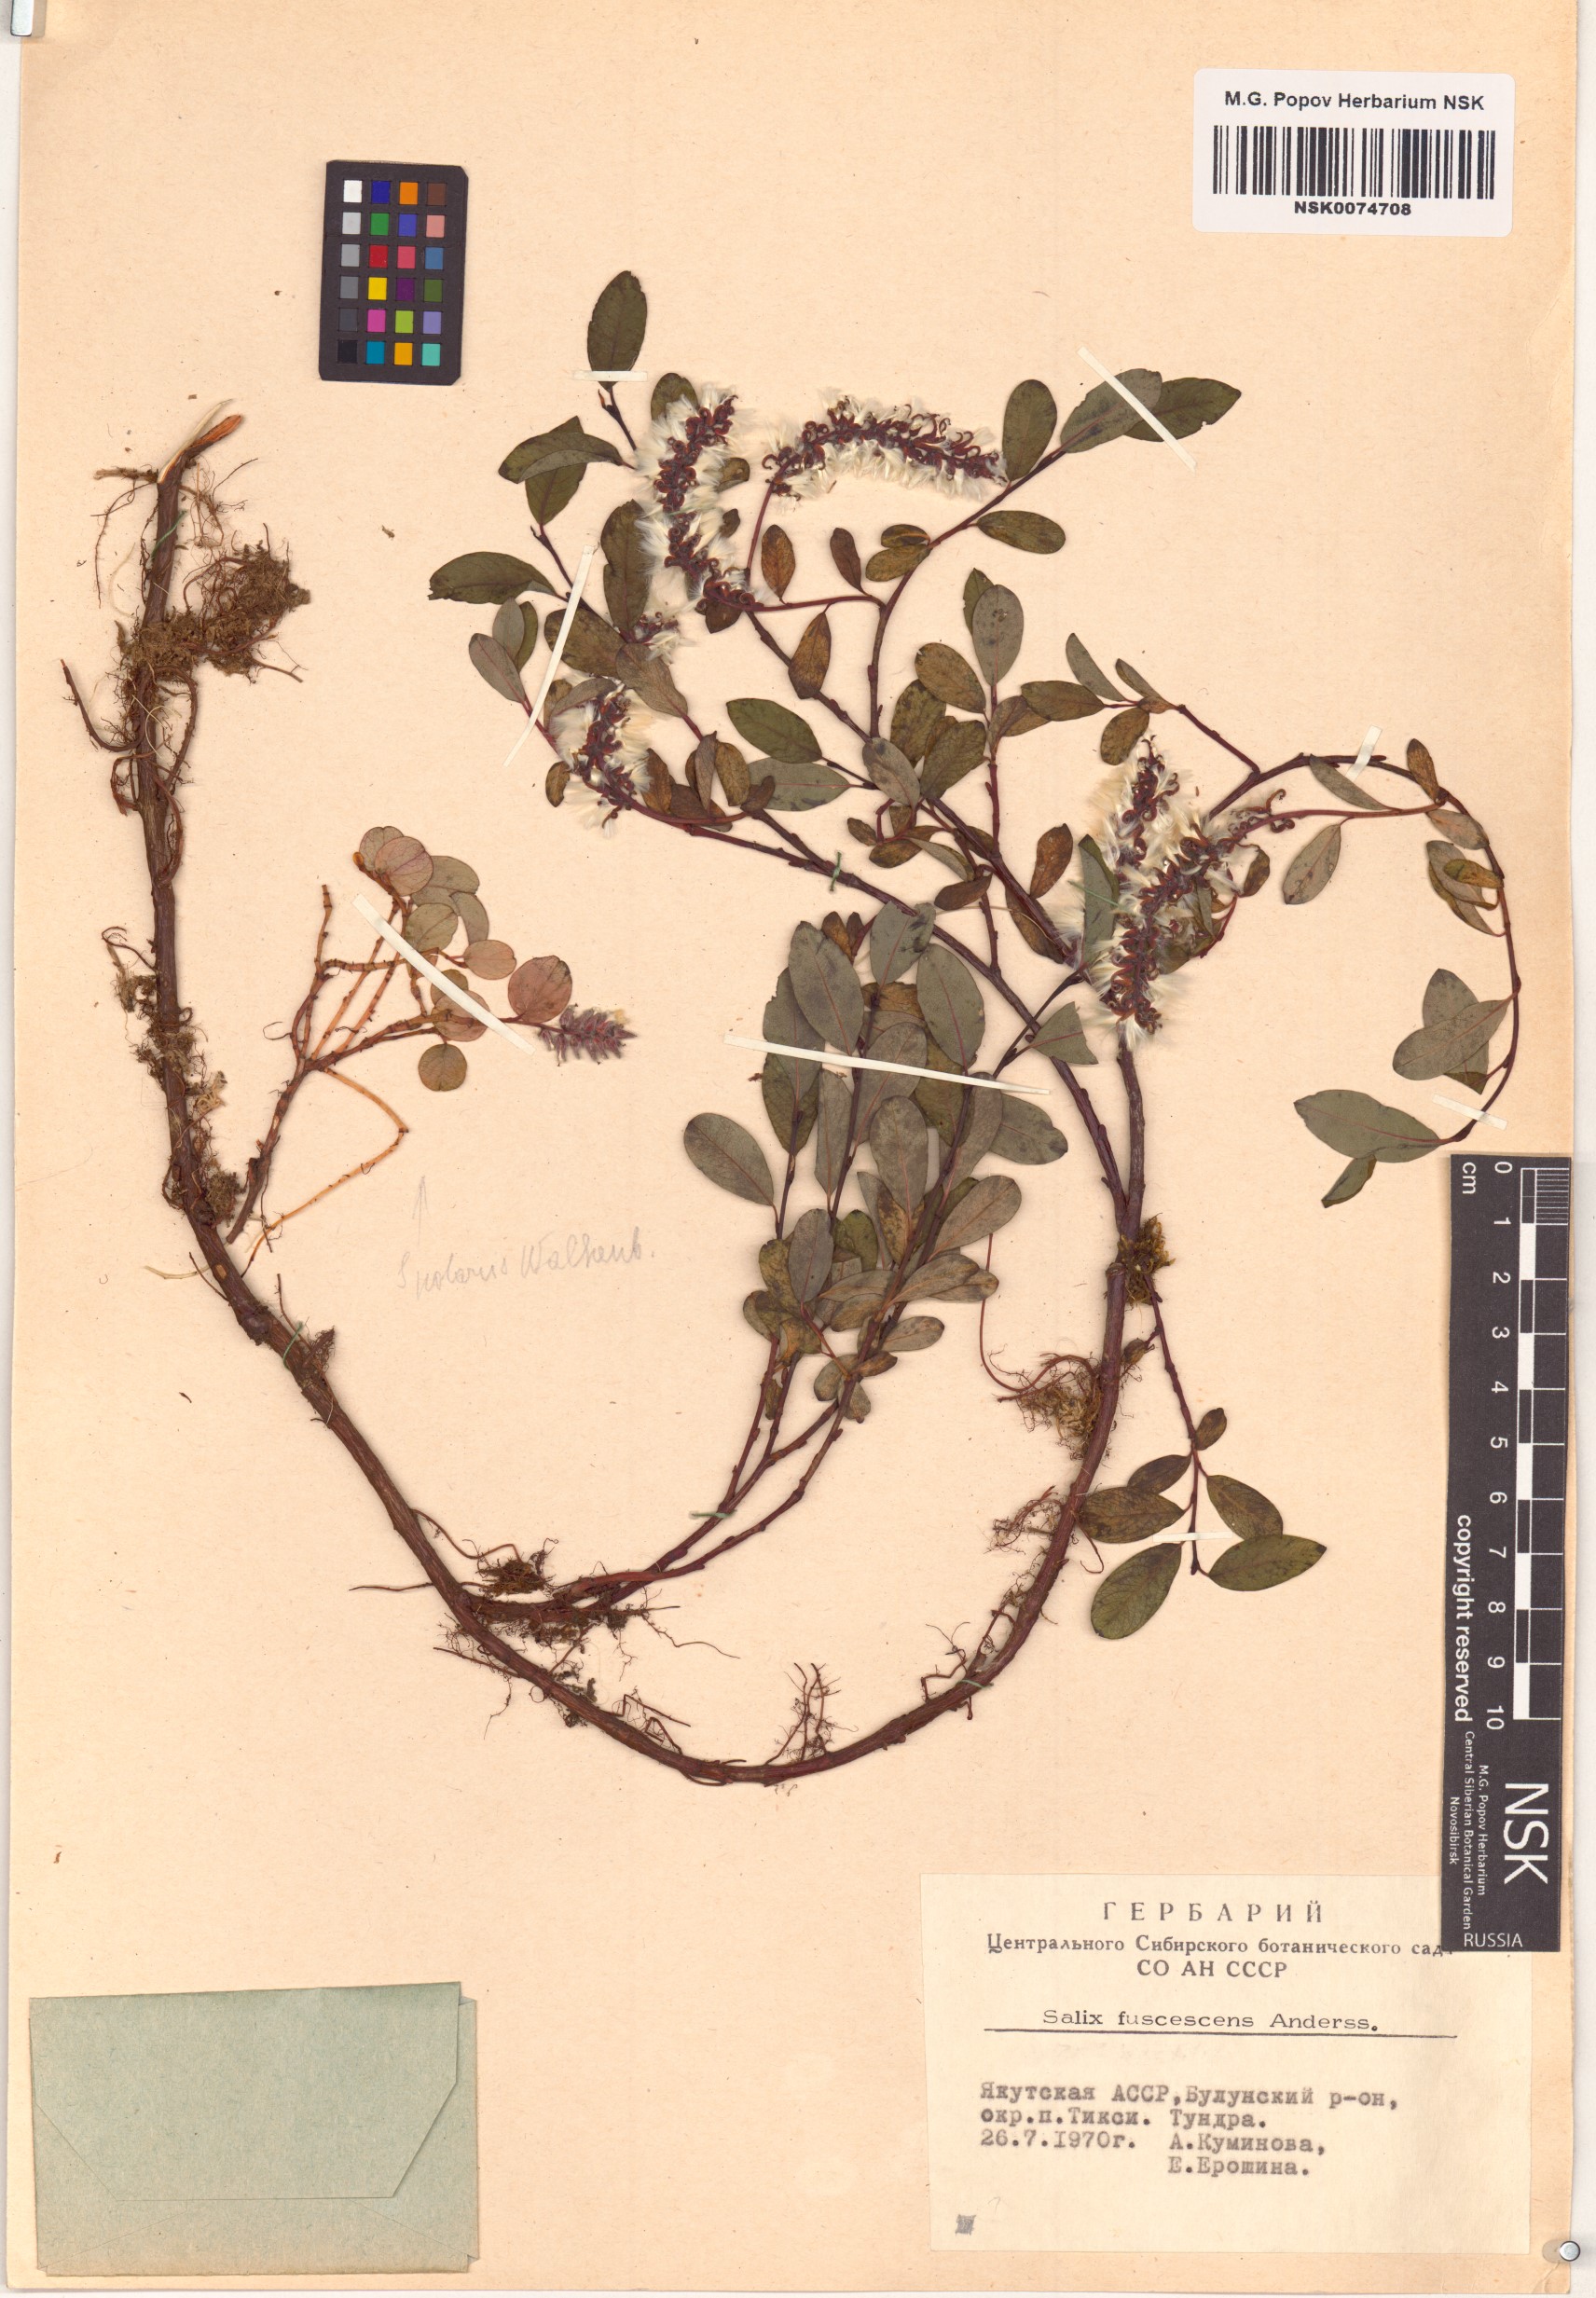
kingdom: Plantae
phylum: Tracheophyta
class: Magnoliopsida
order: Malpighiales
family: Salicaceae
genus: Salix
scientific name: Salix fuscescens
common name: Brownish willow
